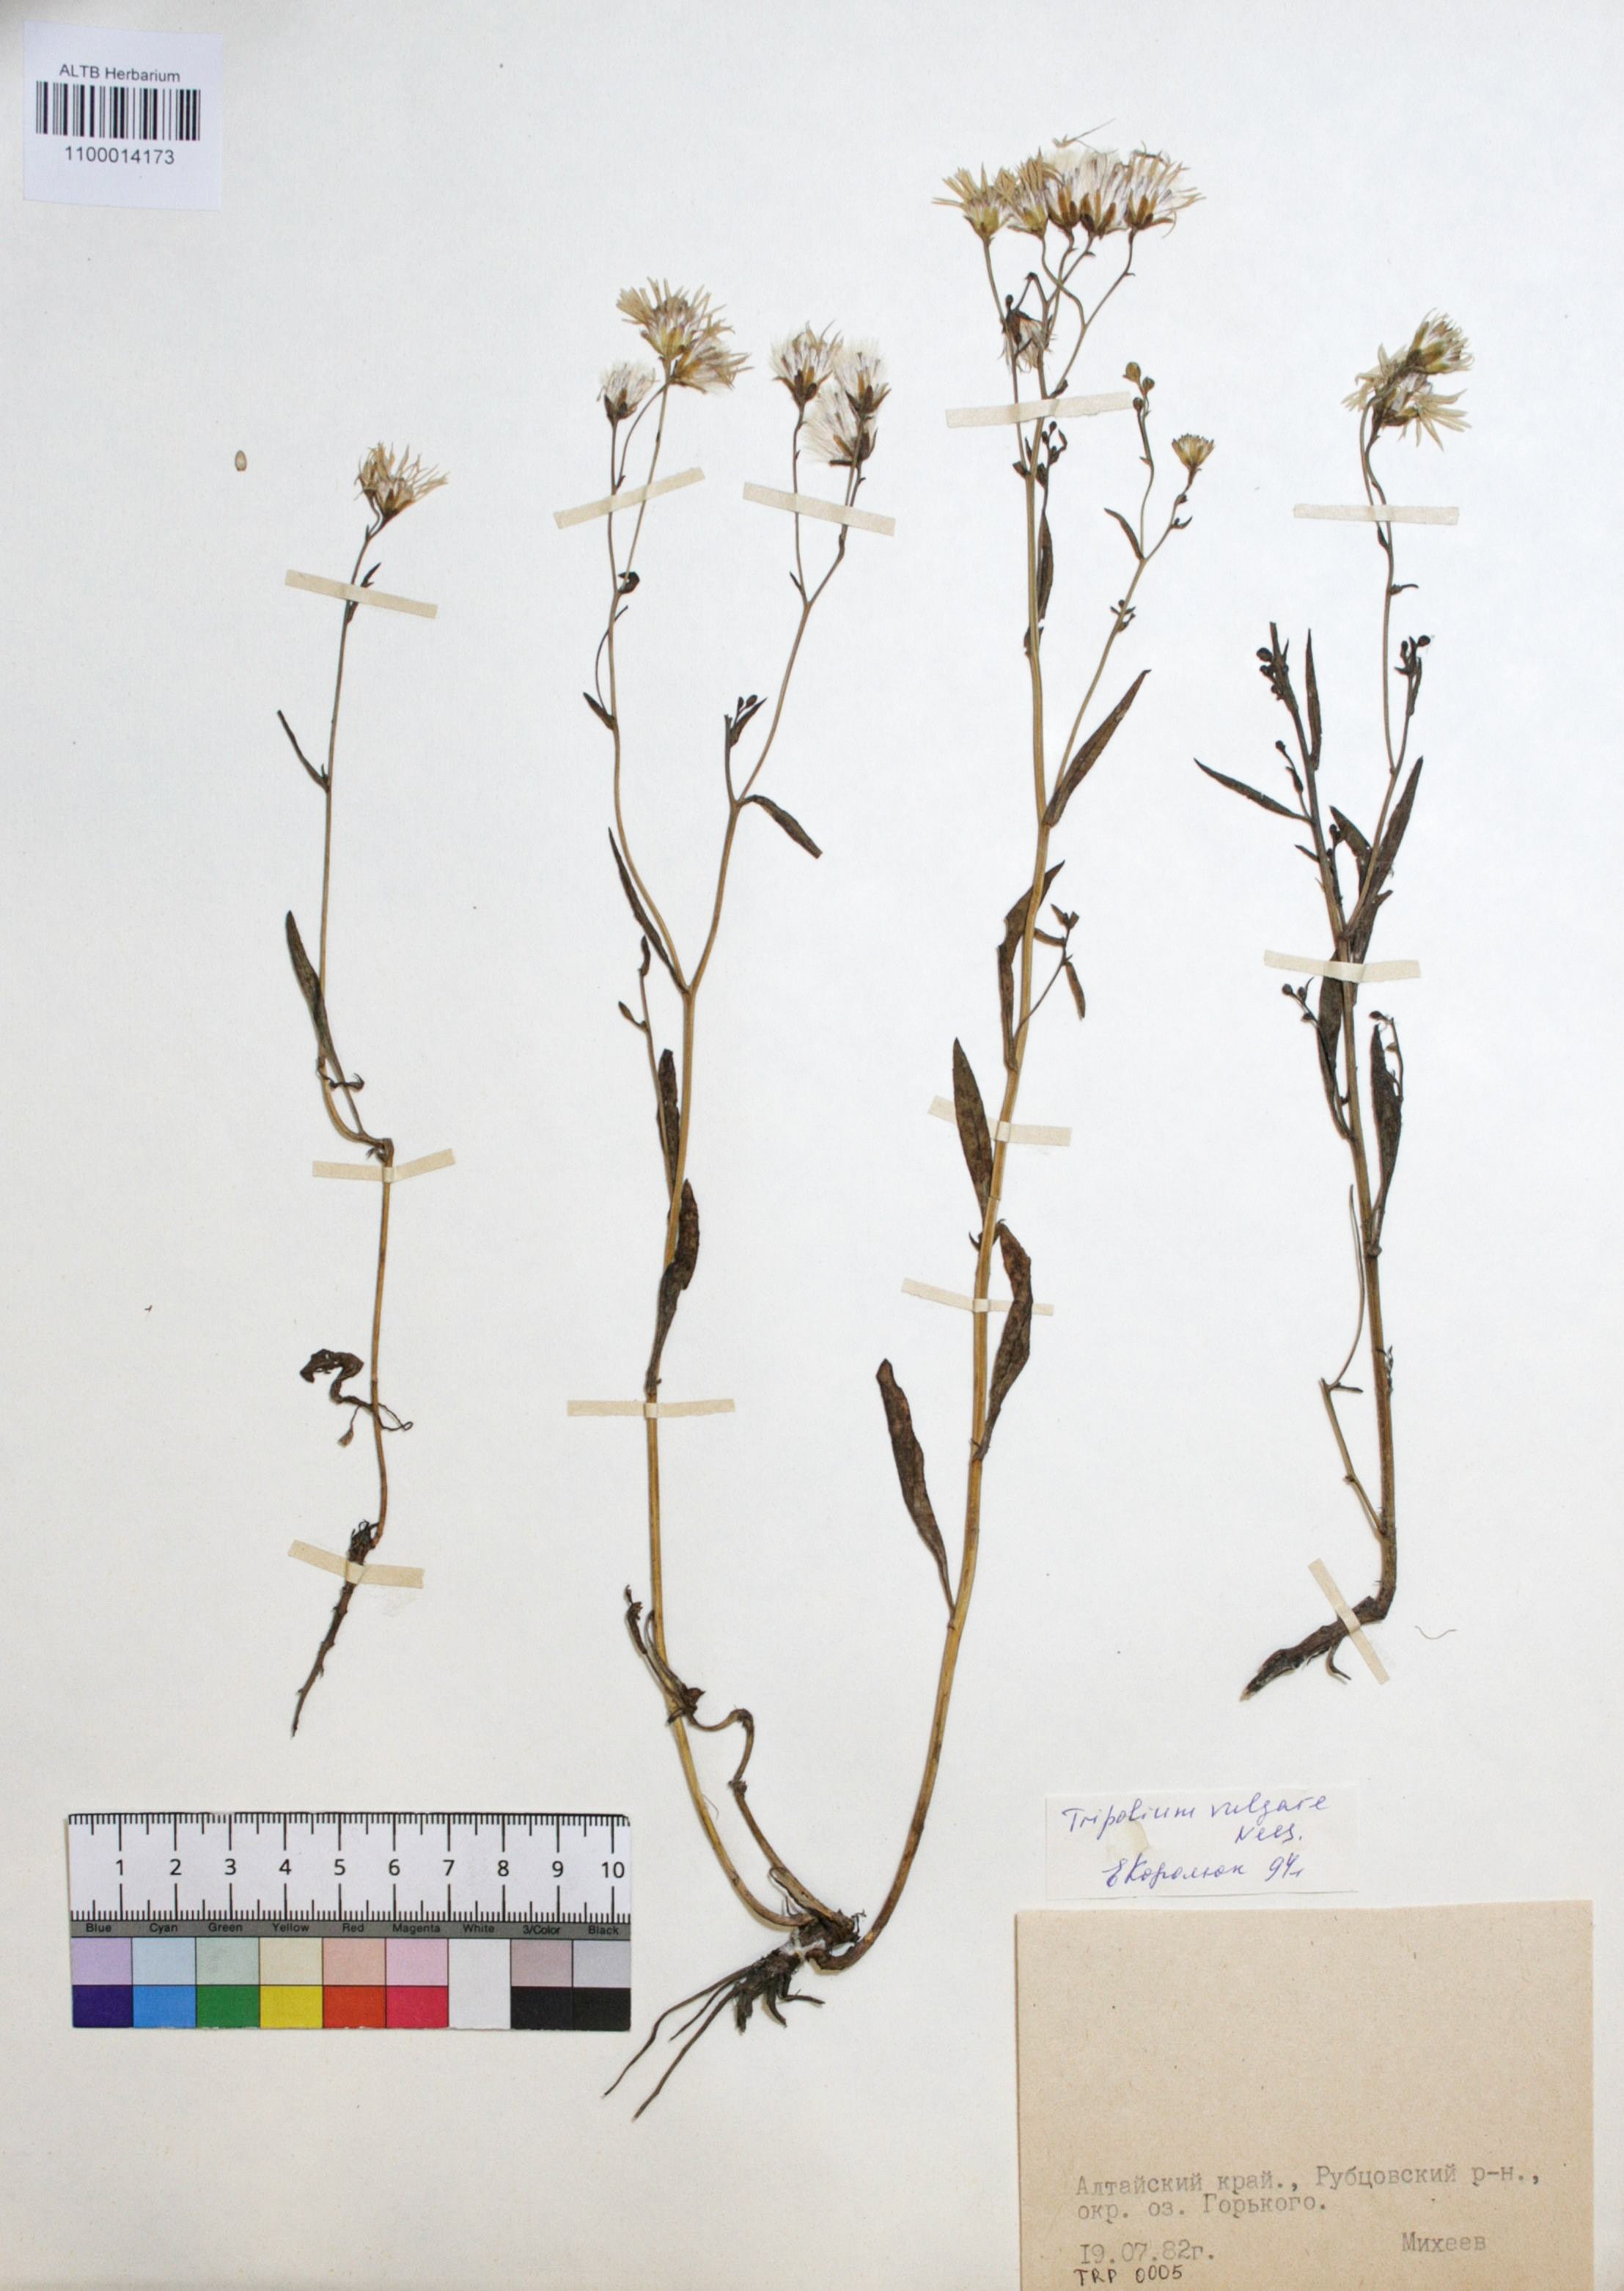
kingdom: Plantae
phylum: Tracheophyta
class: Magnoliopsida
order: Asterales
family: Asteraceae
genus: Tripolium
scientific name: Tripolium pannonicum
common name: Sea aster
